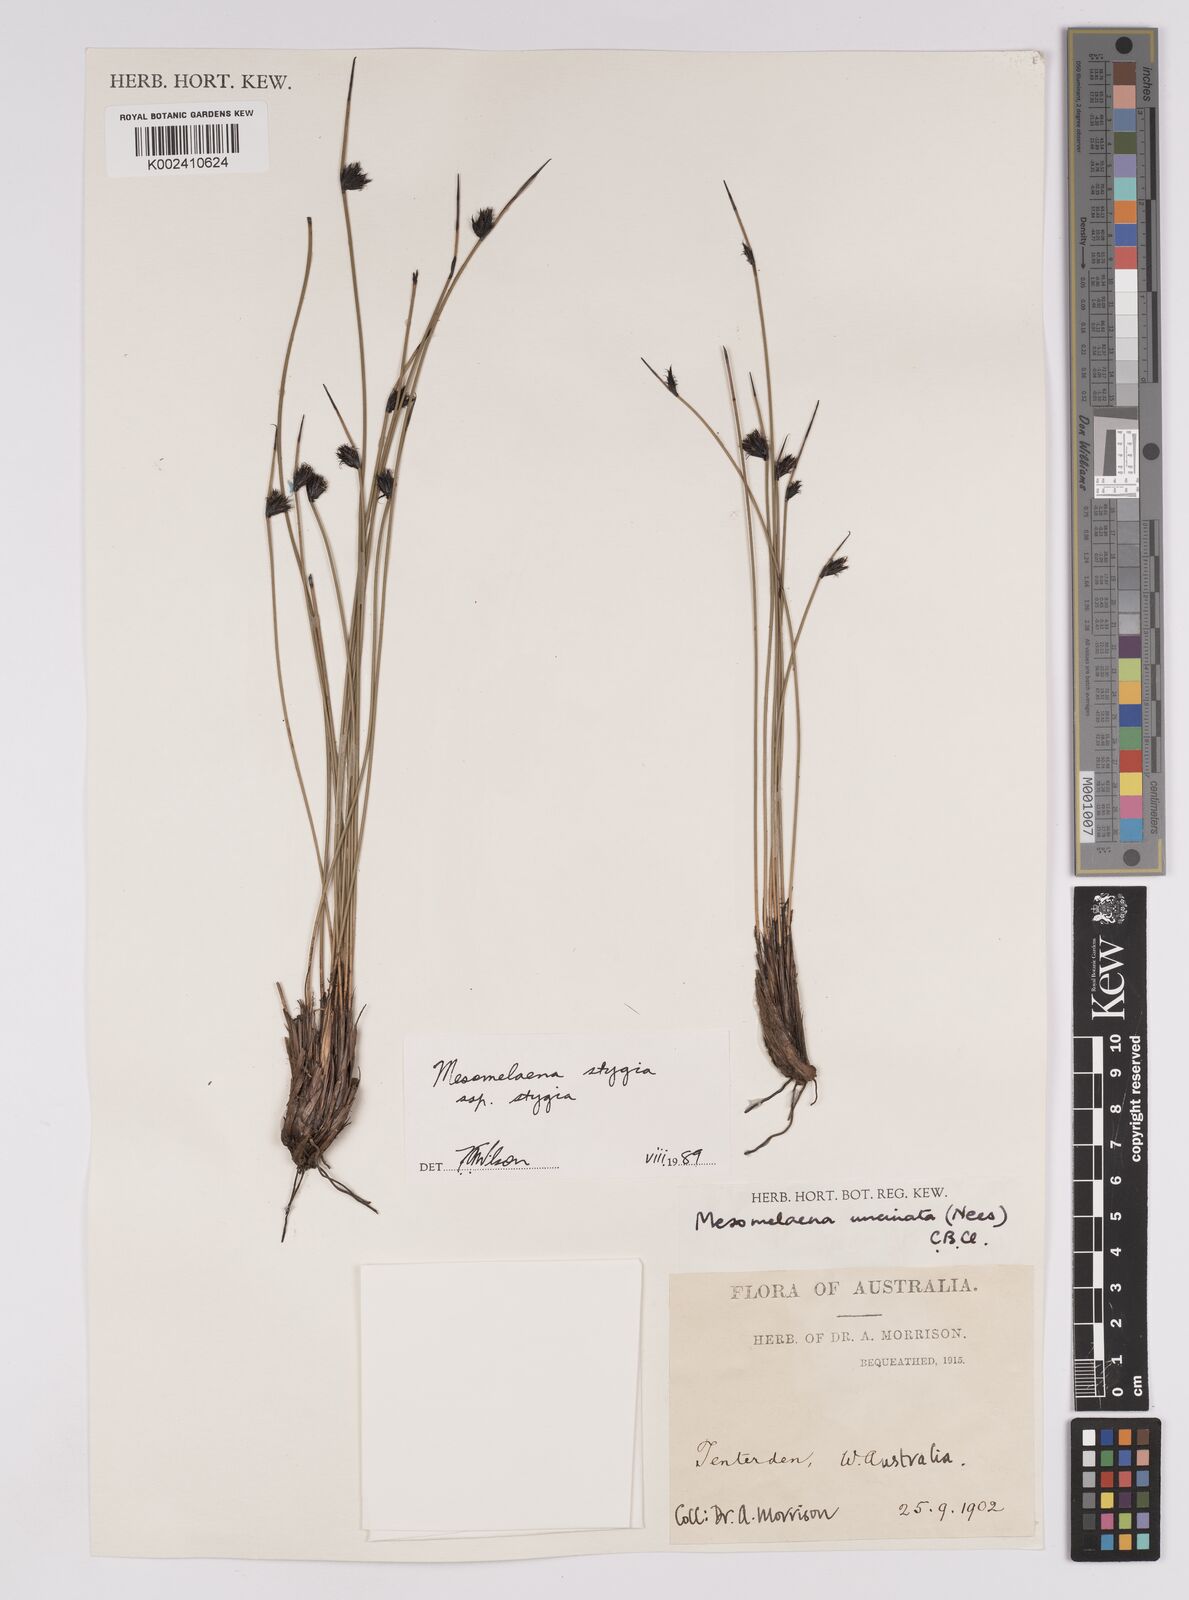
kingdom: Plantae
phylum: Tracheophyta
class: Liliopsida
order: Poales
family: Cyperaceae
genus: Mesomelaena
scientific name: Mesomelaena stygia
